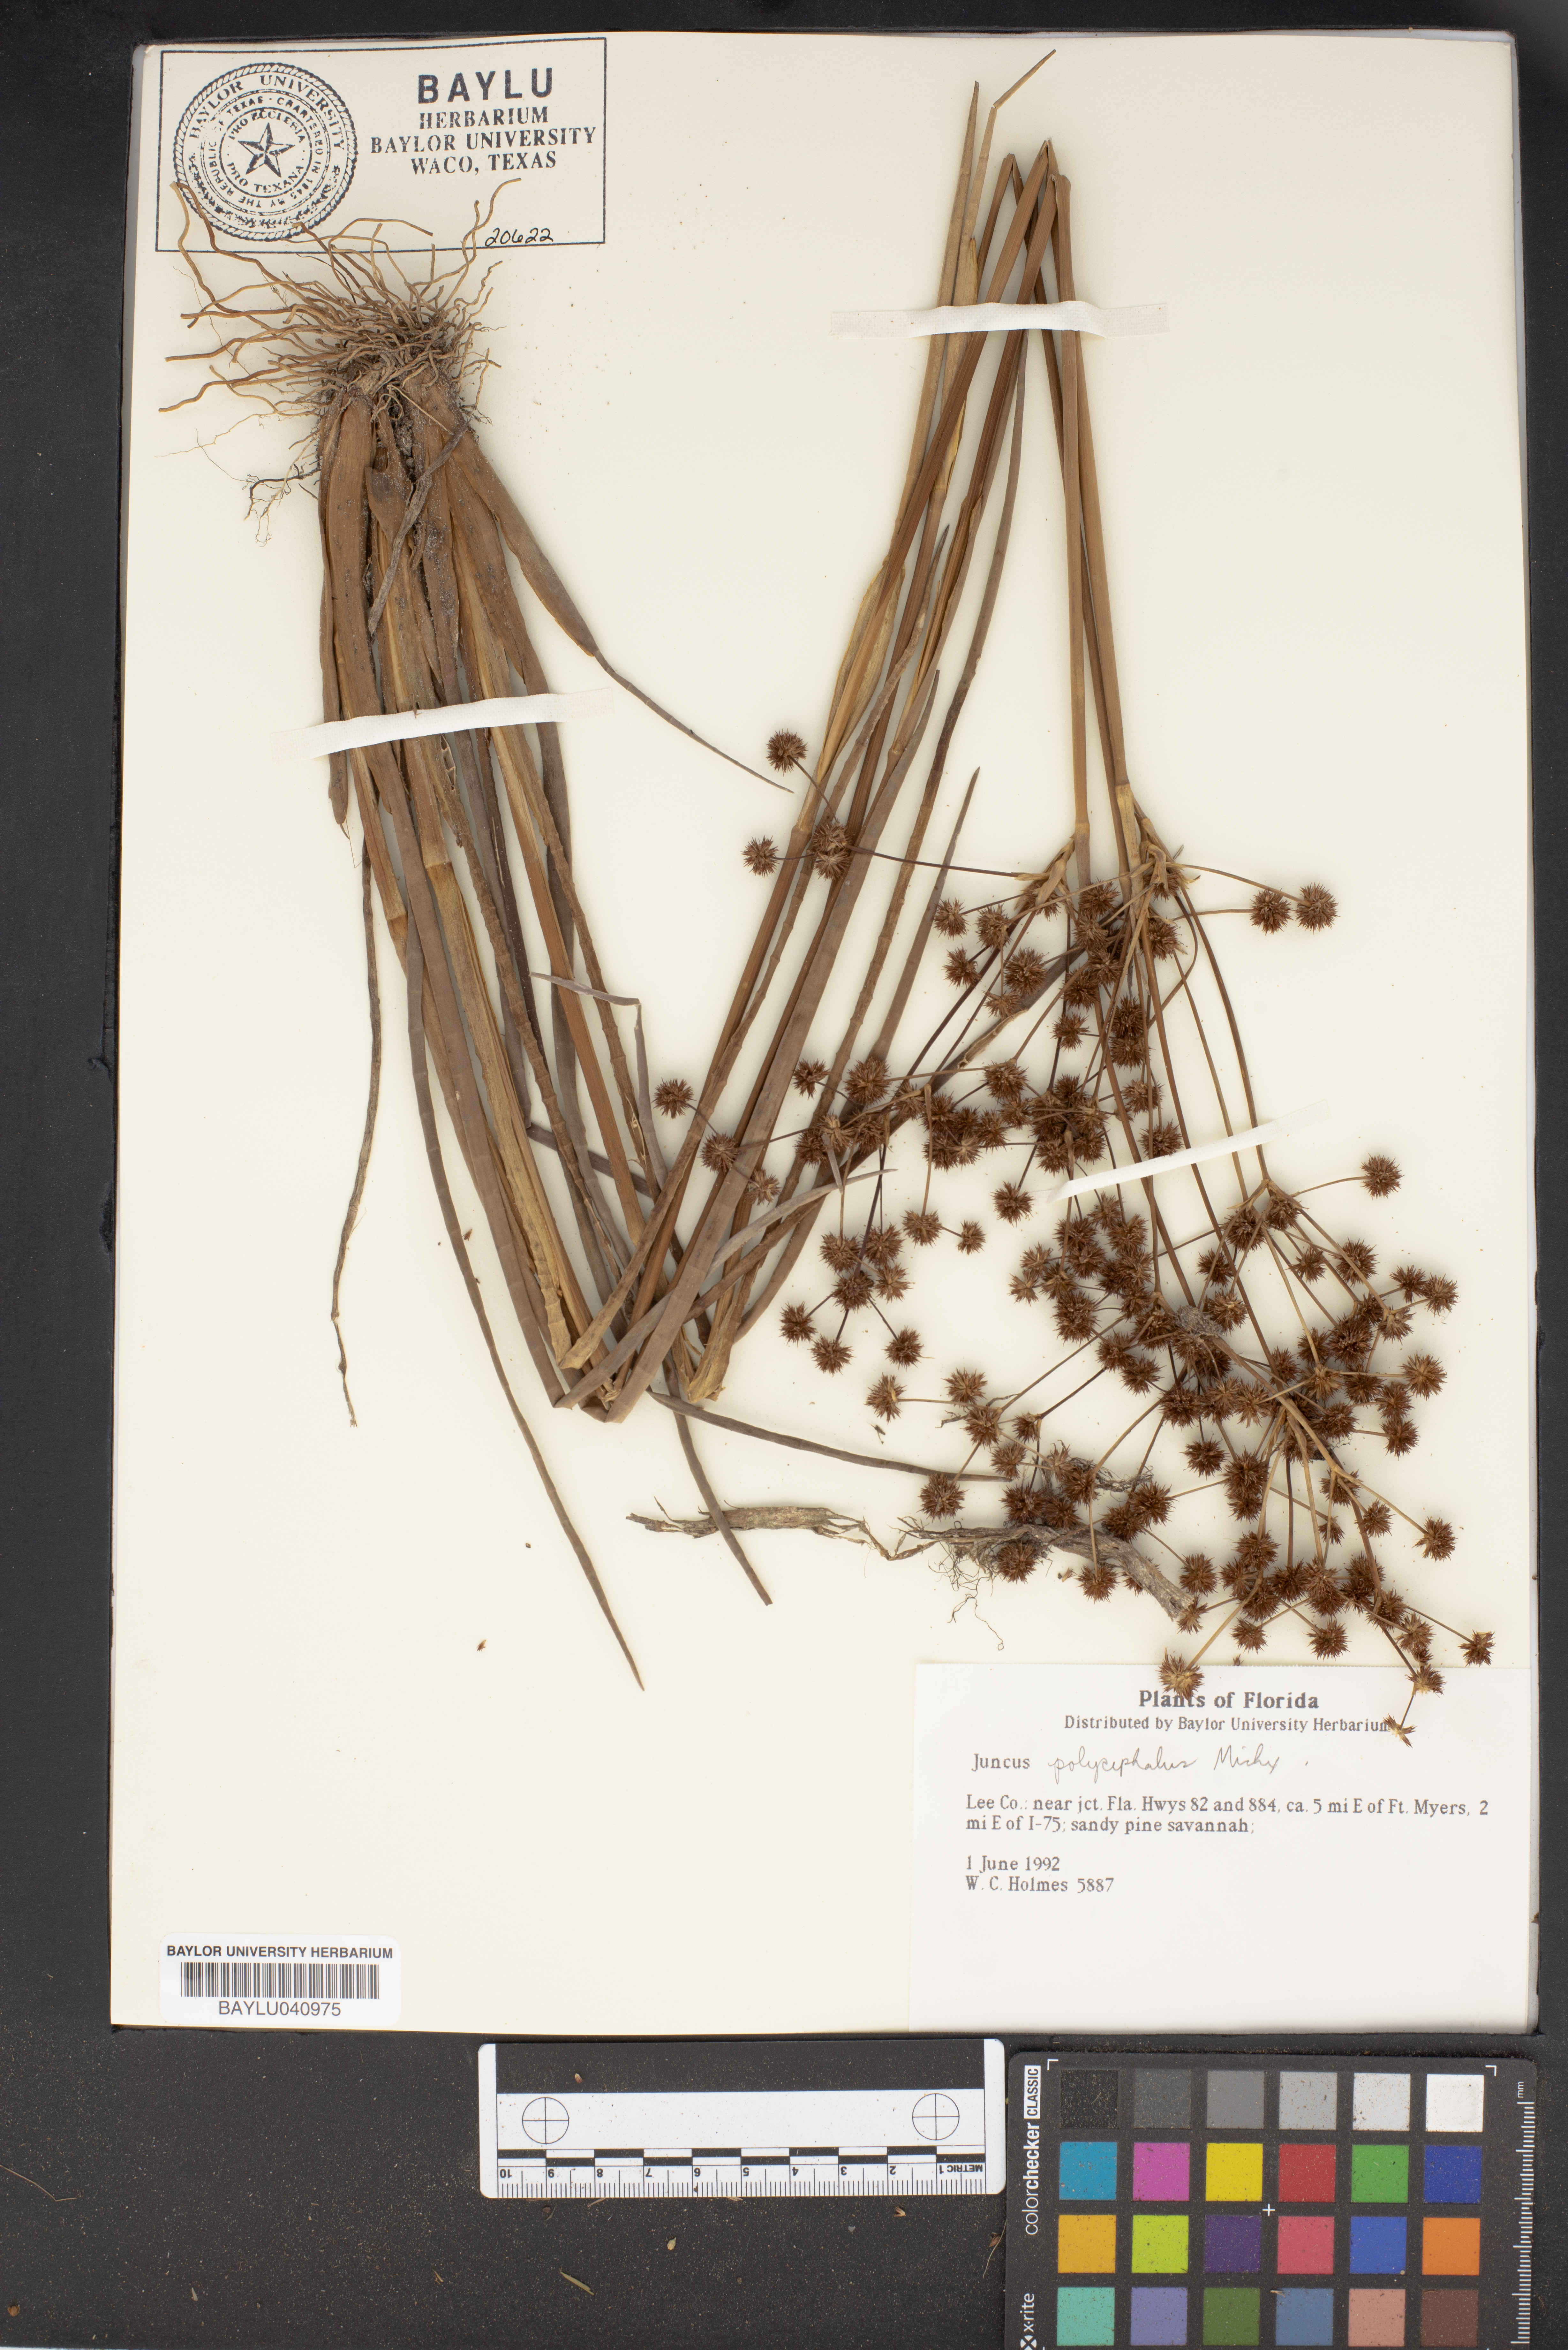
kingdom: Plantae
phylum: Tracheophyta
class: Liliopsida
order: Poales
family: Juncaceae
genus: Juncus
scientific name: Juncus polycephalus
